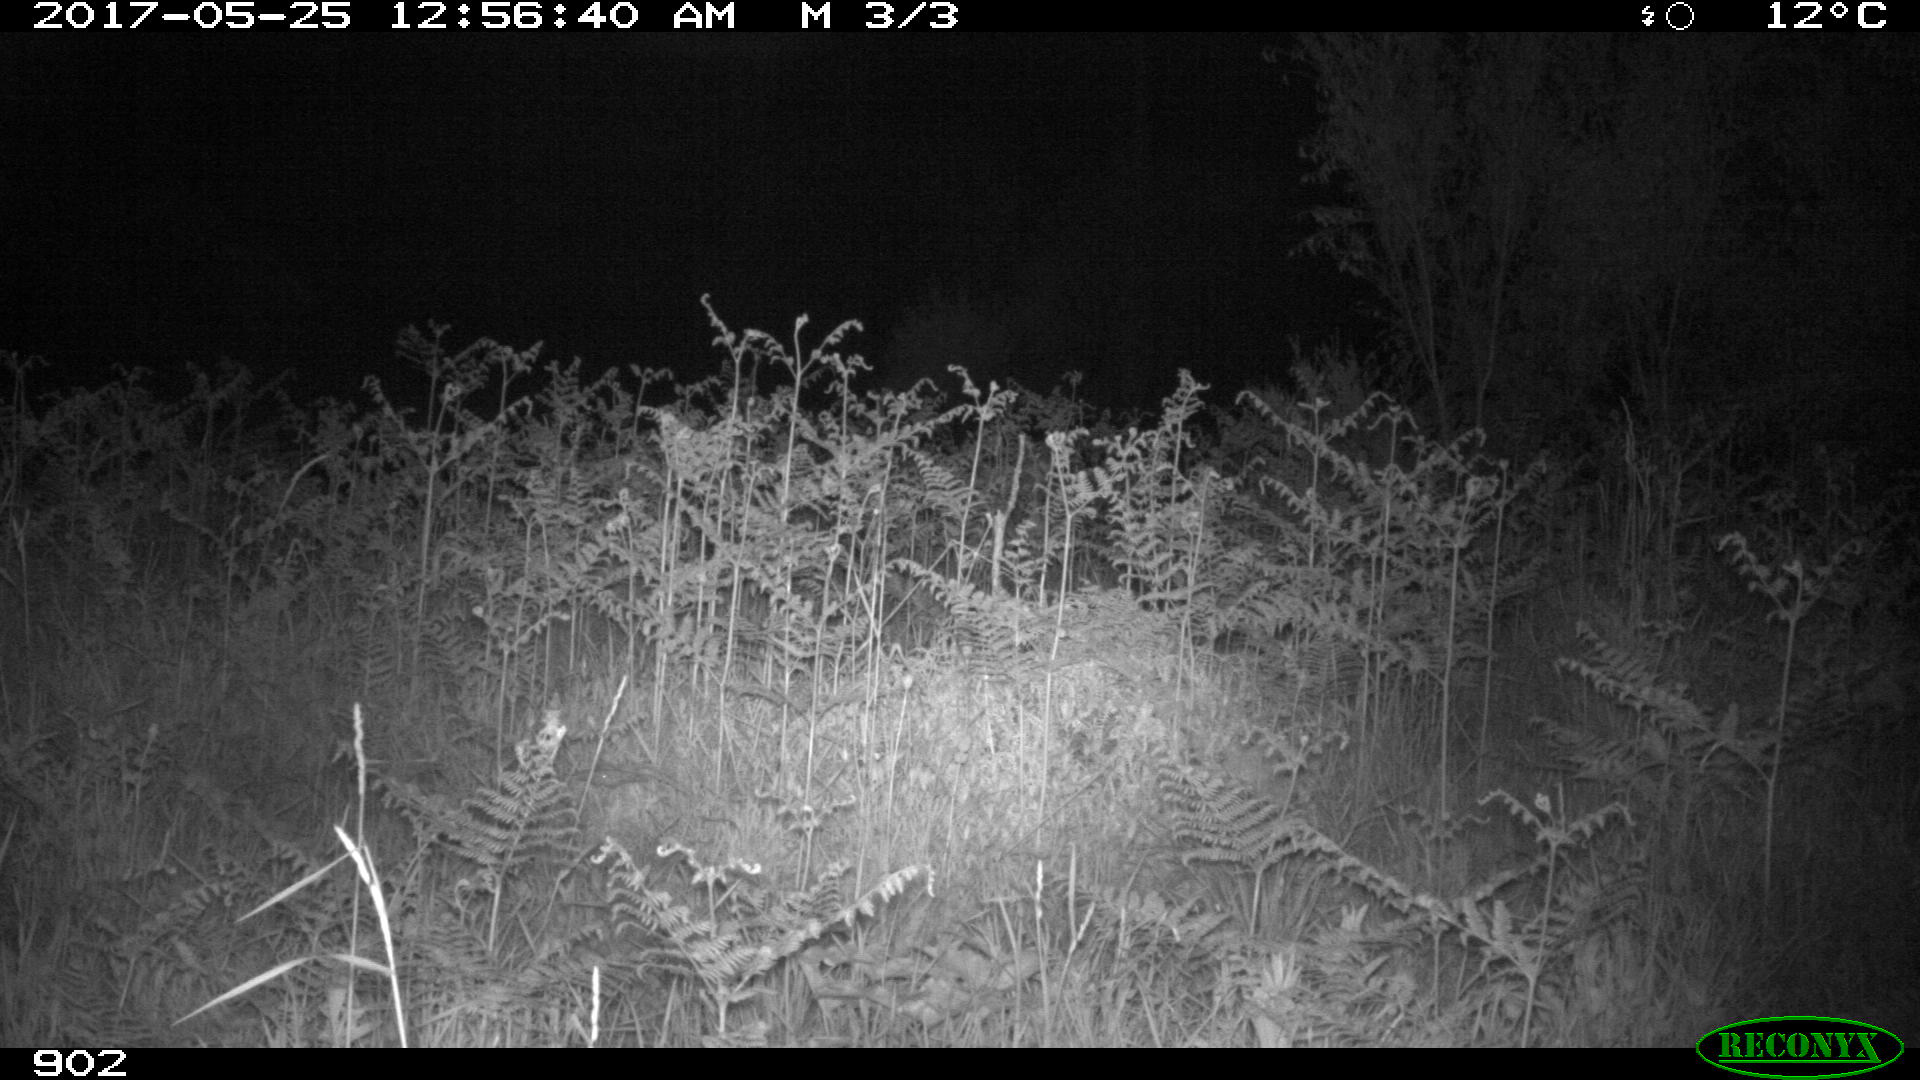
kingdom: Animalia
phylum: Chordata
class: Mammalia
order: Artiodactyla
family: Suidae
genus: Sus
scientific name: Sus scrofa
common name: Wild boar
